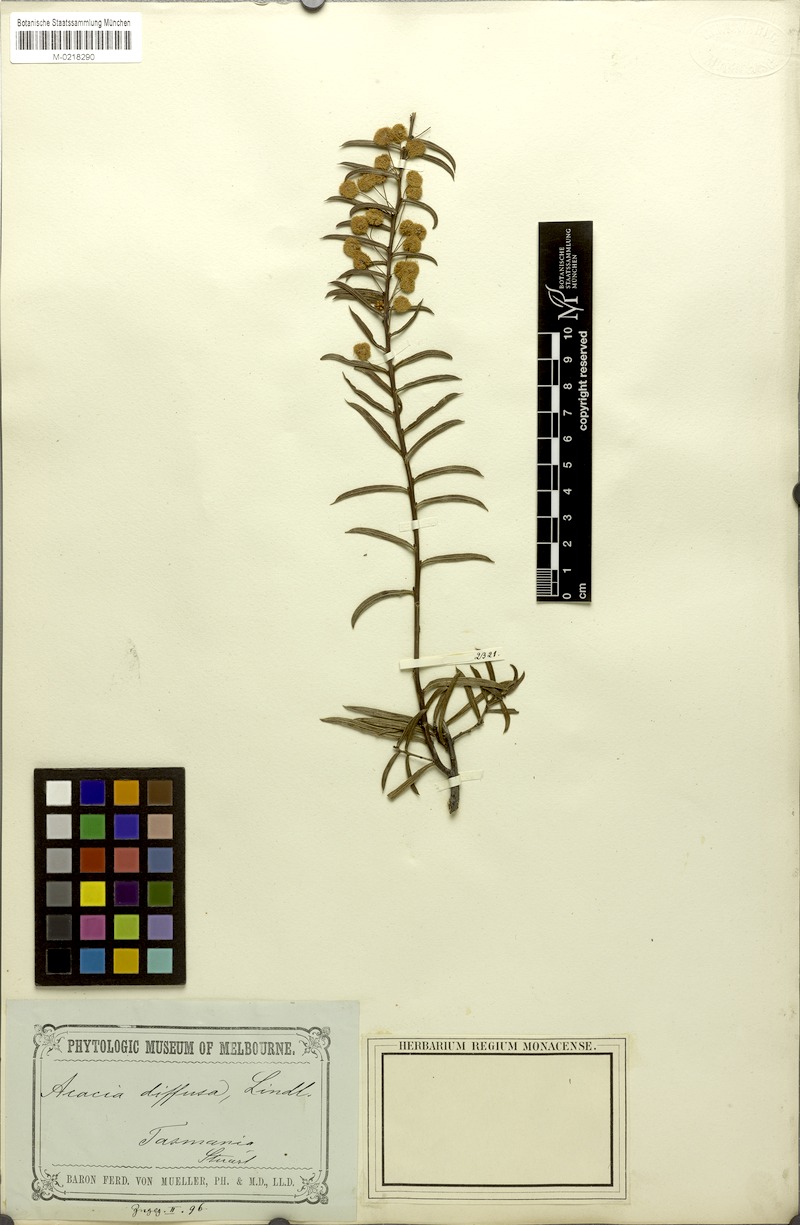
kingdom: Plantae
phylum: Tracheophyta
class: Magnoliopsida
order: Fabales
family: Fabaceae
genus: Acacia
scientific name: Acacia genistifolia
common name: Early wattle
